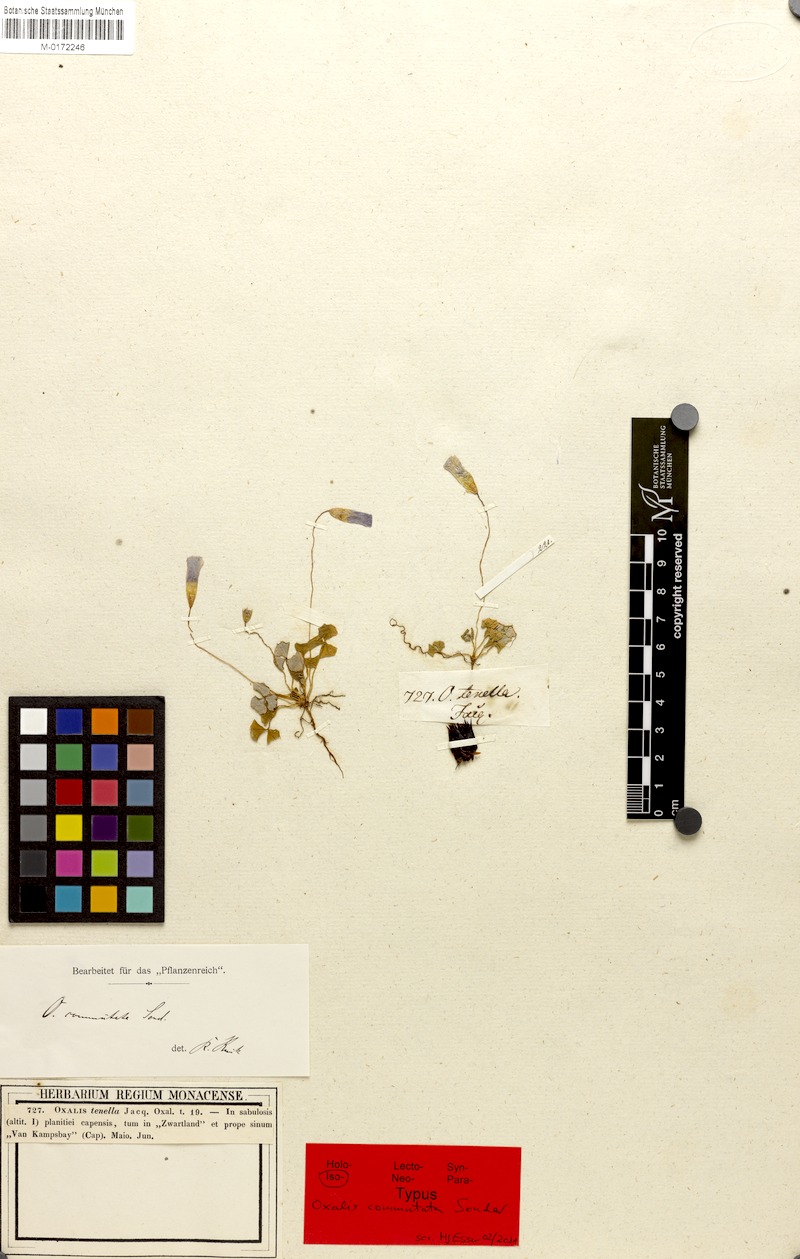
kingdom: Plantae
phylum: Tracheophyta
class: Magnoliopsida
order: Oxalidales
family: Oxalidaceae
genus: Oxalis
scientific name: Oxalis commutata
